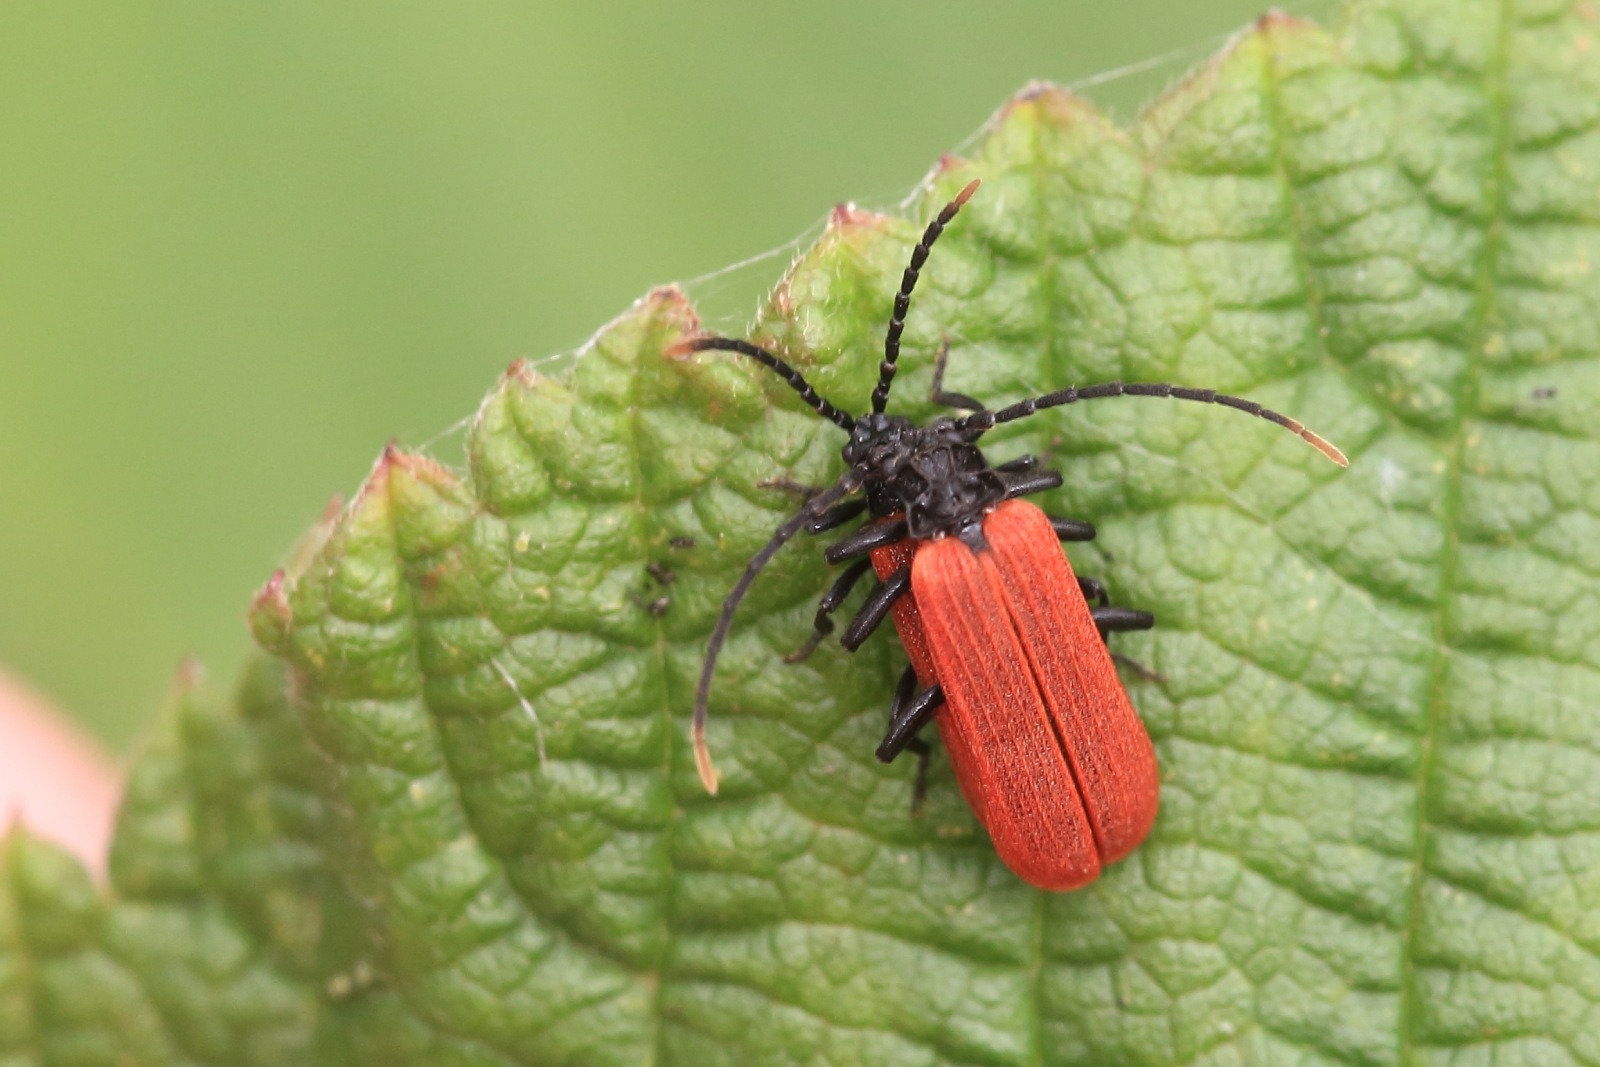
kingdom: Animalia
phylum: Arthropoda
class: Insecta
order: Coleoptera
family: Lycidae
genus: Platycis
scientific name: Platycis minutus
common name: Lille maskebille
